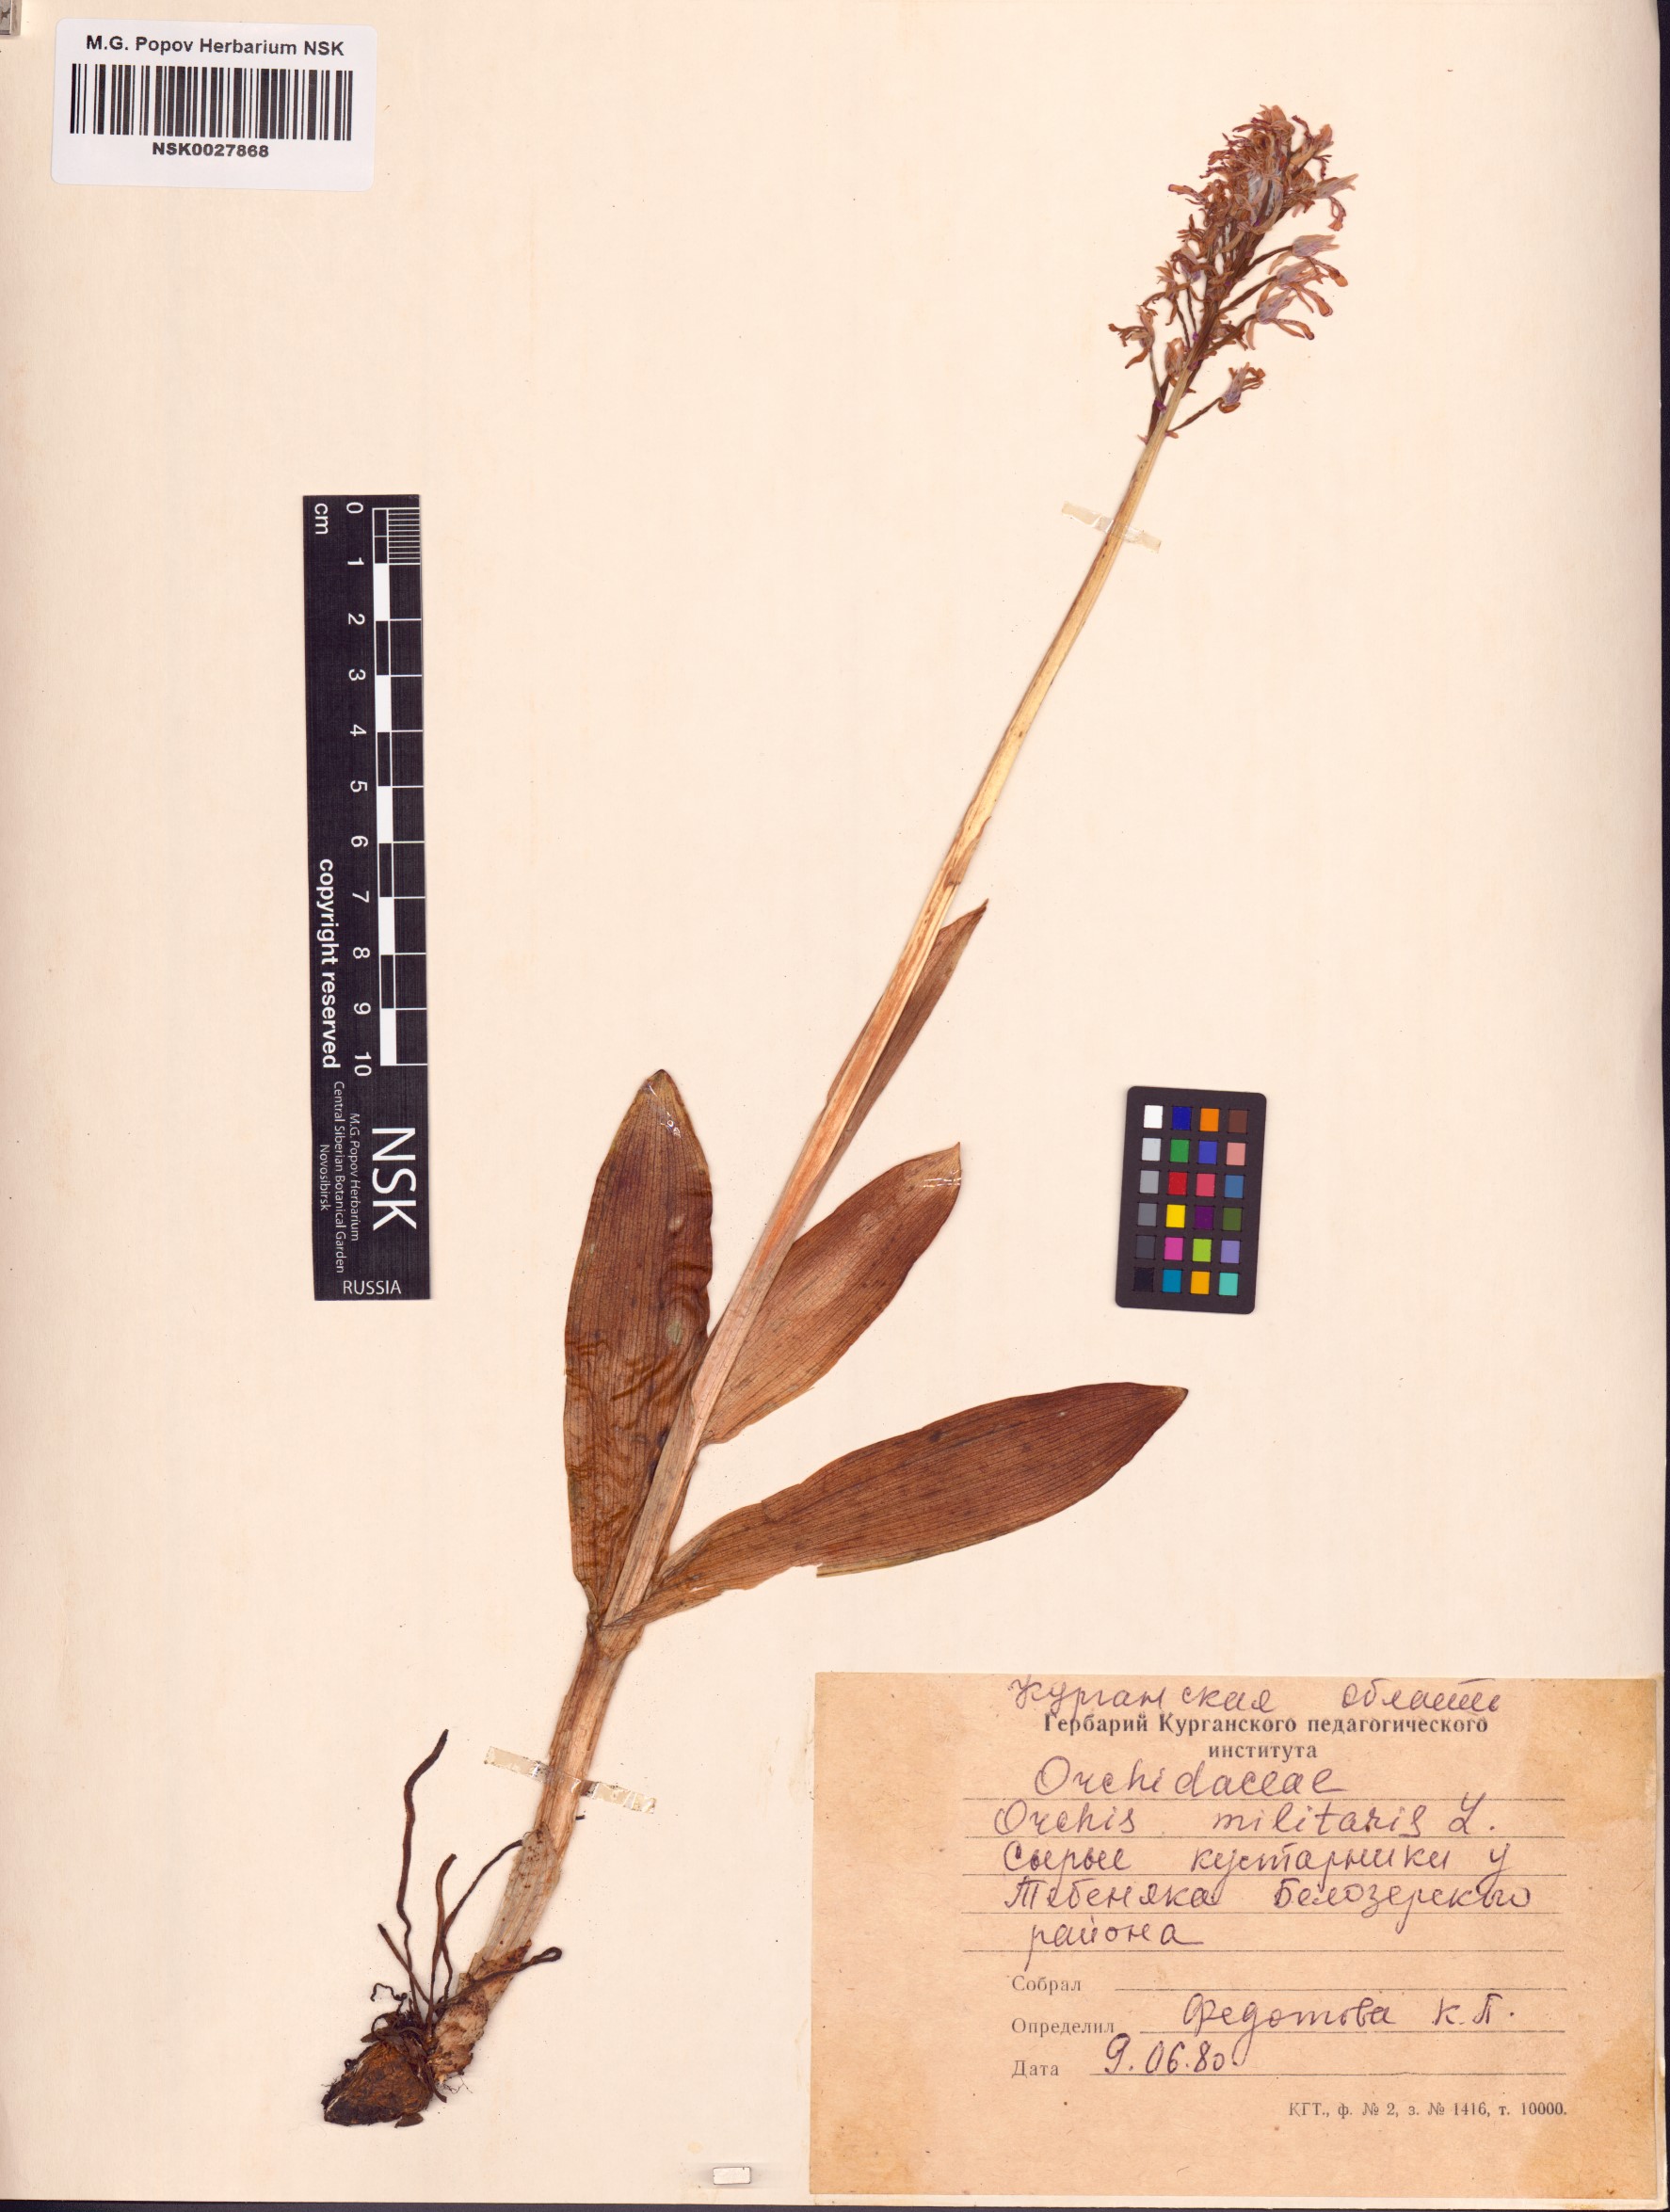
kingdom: Plantae
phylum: Tracheophyta
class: Liliopsida
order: Asparagales
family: Orchidaceae
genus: Orchis
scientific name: Orchis militaris
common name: Military orchid
